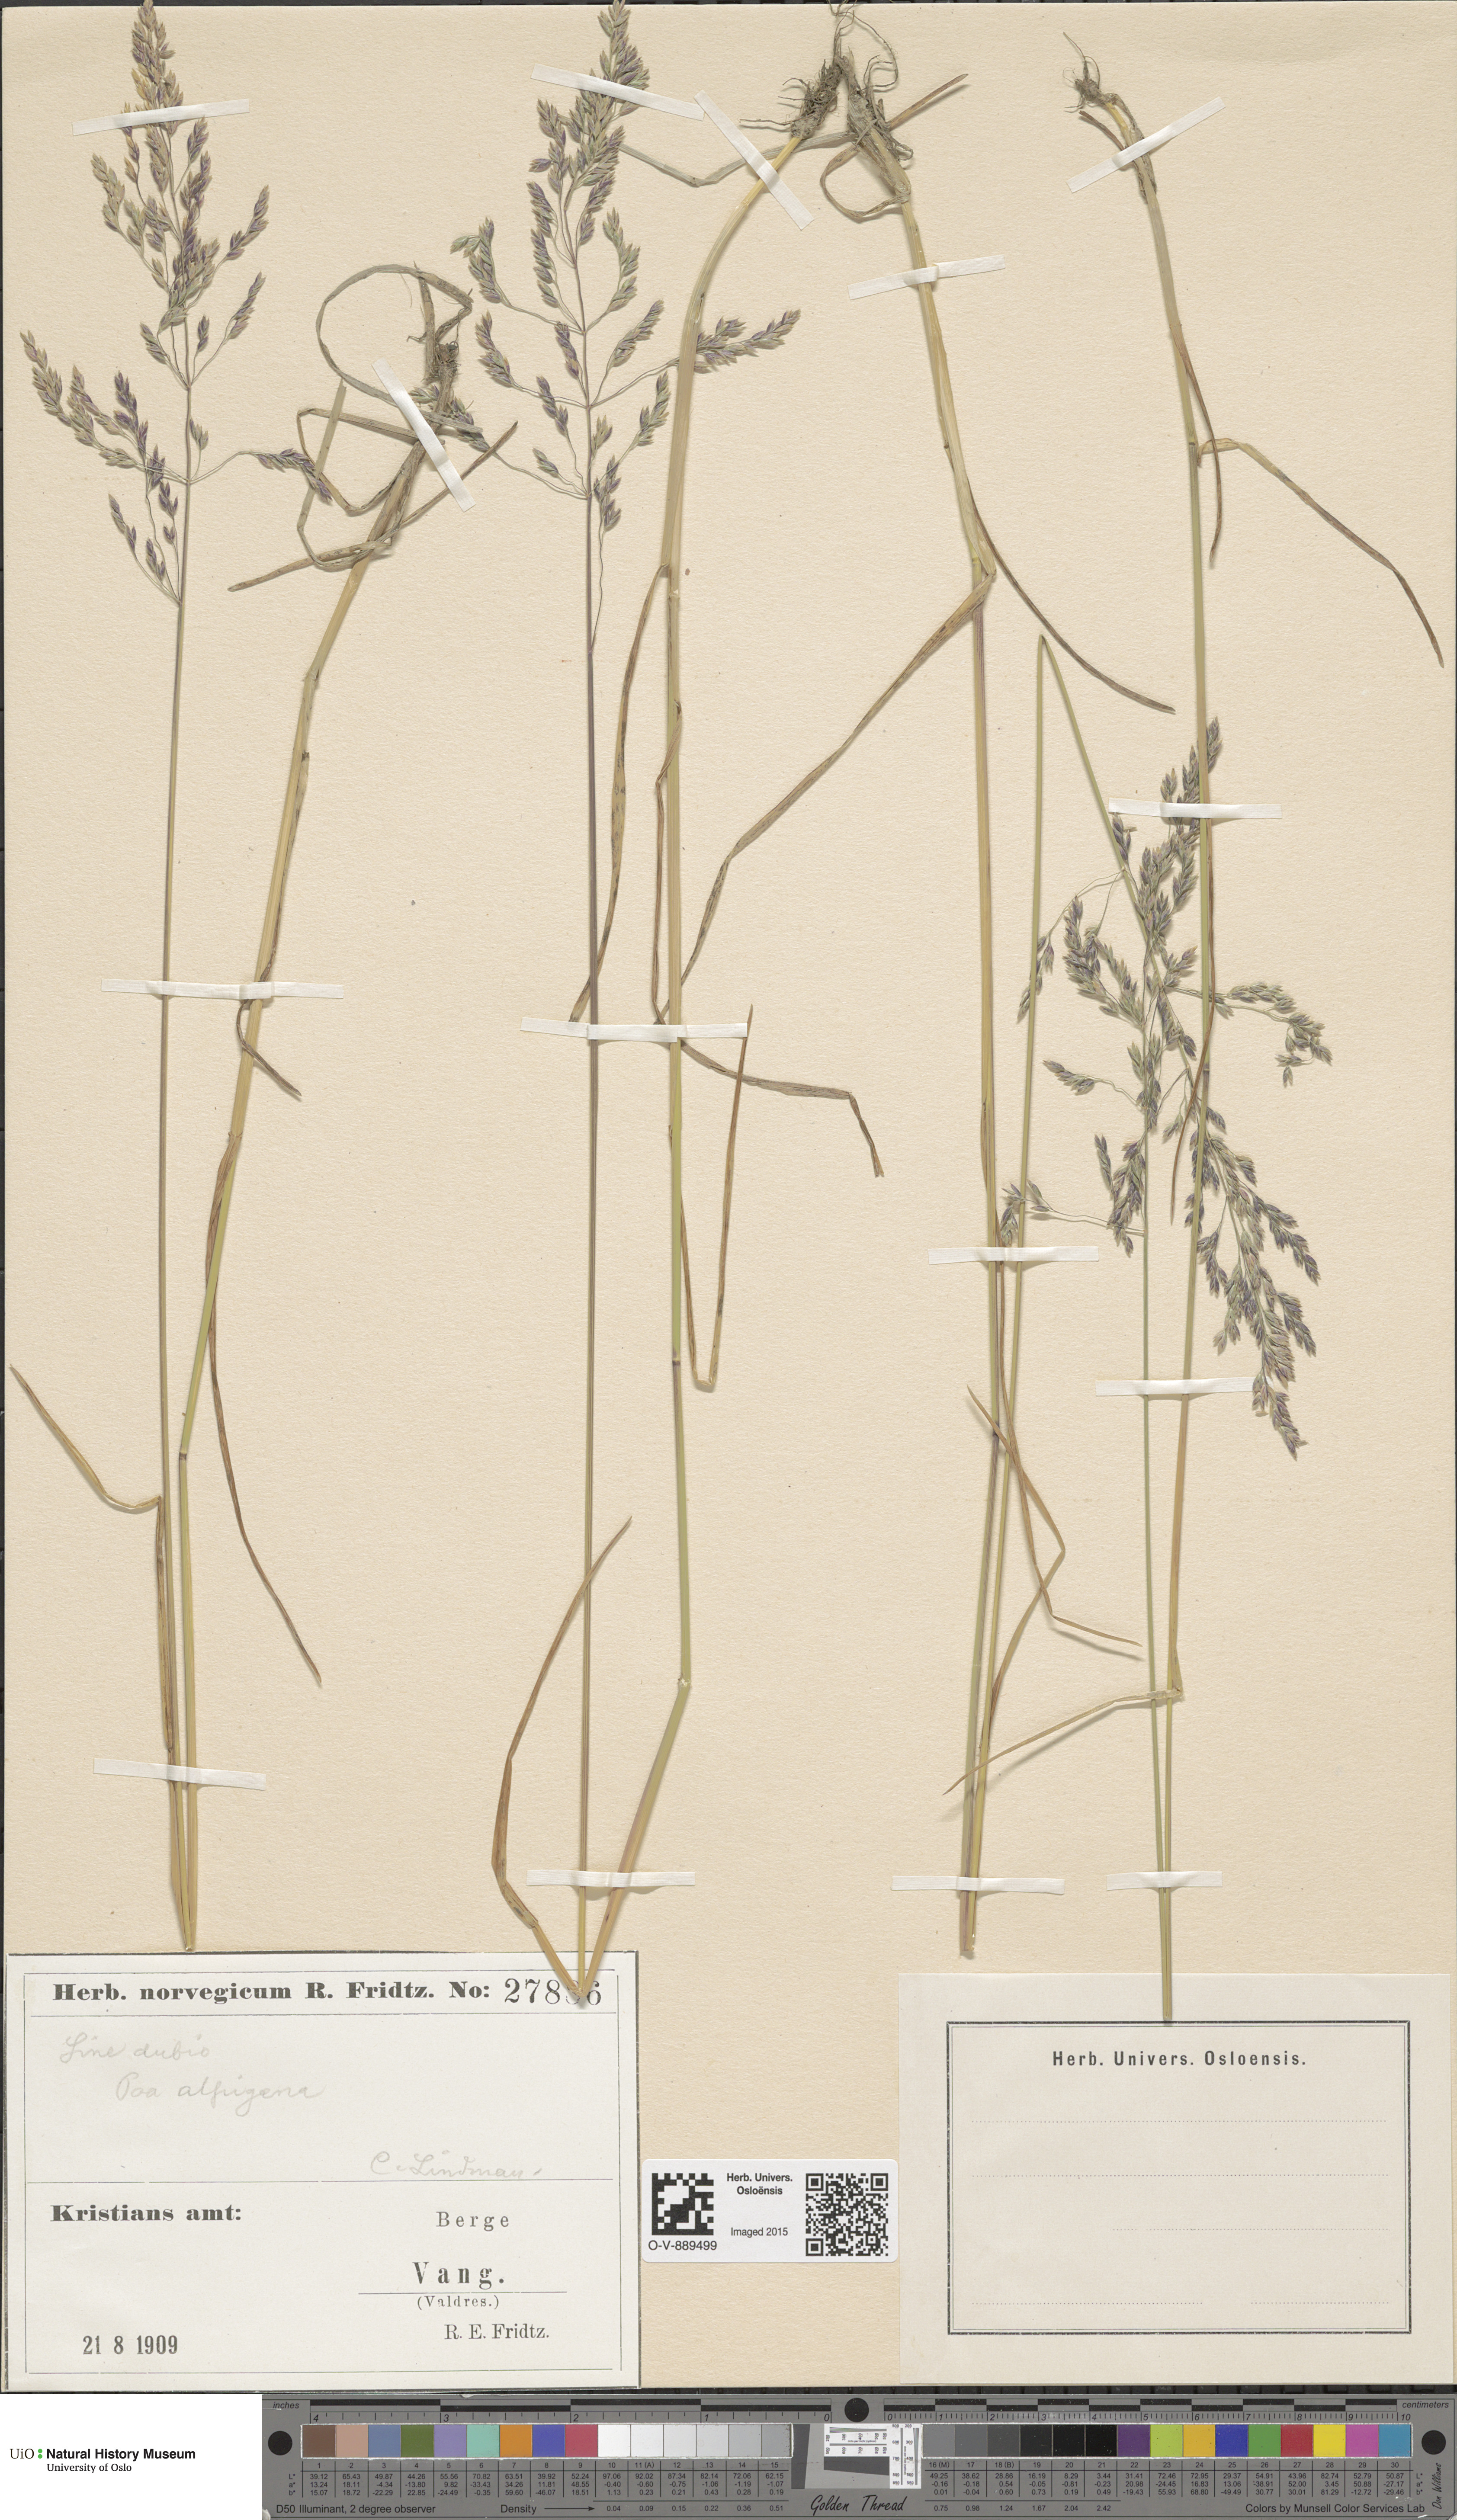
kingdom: Plantae
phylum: Tracheophyta
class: Liliopsida
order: Poales
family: Poaceae
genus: Poa
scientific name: Poa alpigena
